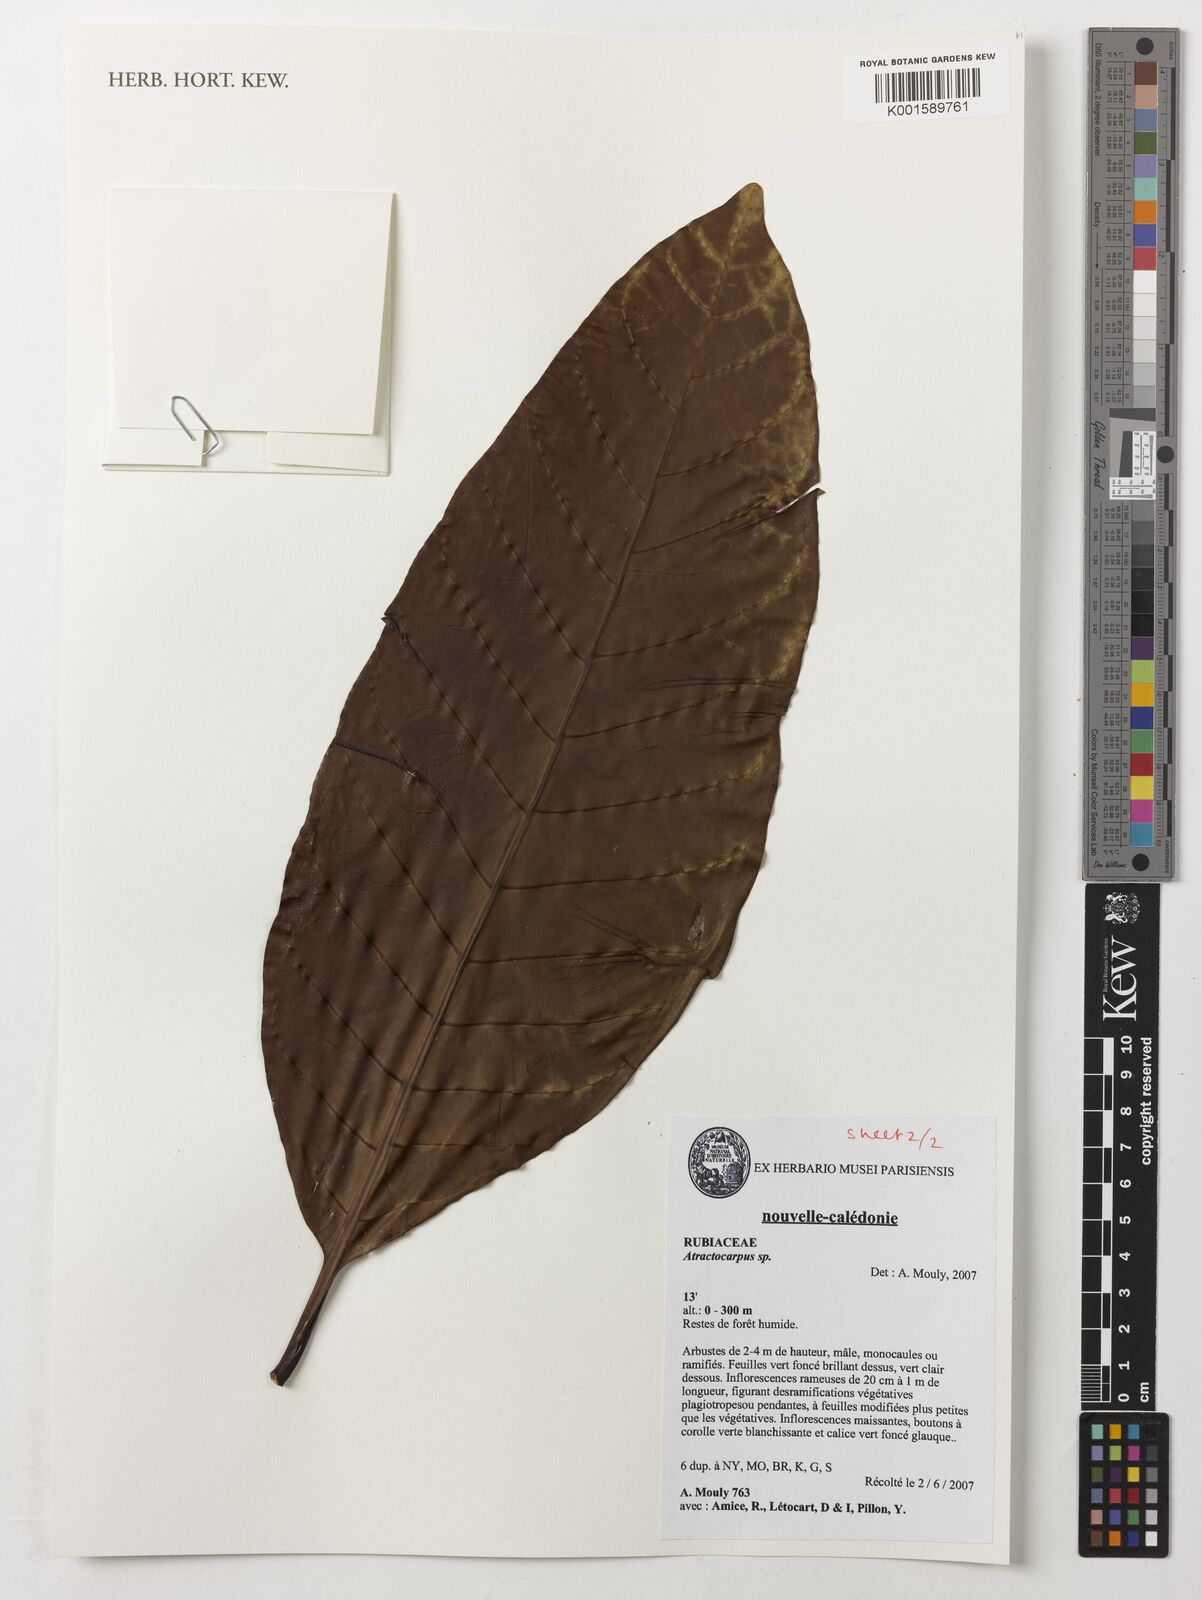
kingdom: Plantae
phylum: Tracheophyta
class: Magnoliopsida
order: Gentianales
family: Rubiaceae
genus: Atractocarpus
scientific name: Atractocarpus
